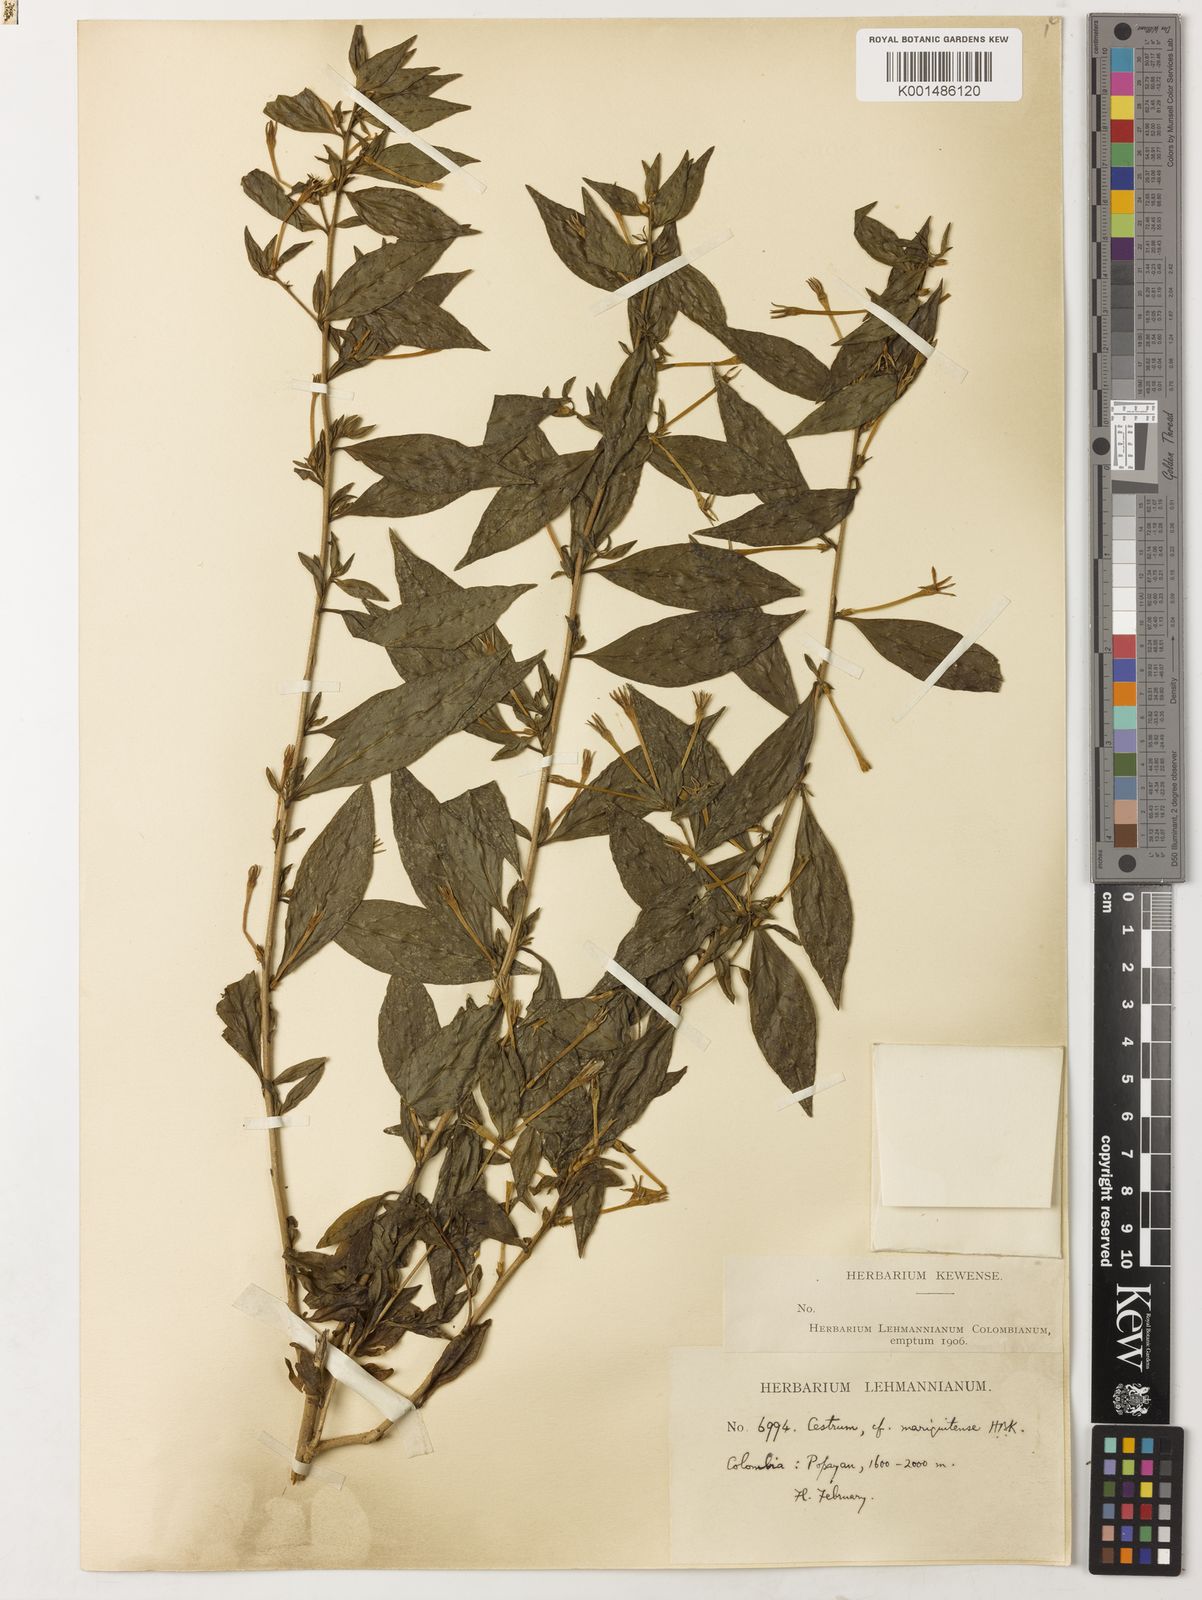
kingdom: Plantae
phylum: Tracheophyta
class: Magnoliopsida
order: Solanales
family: Solanaceae
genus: Cestrum
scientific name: Cestrum mariquitense
